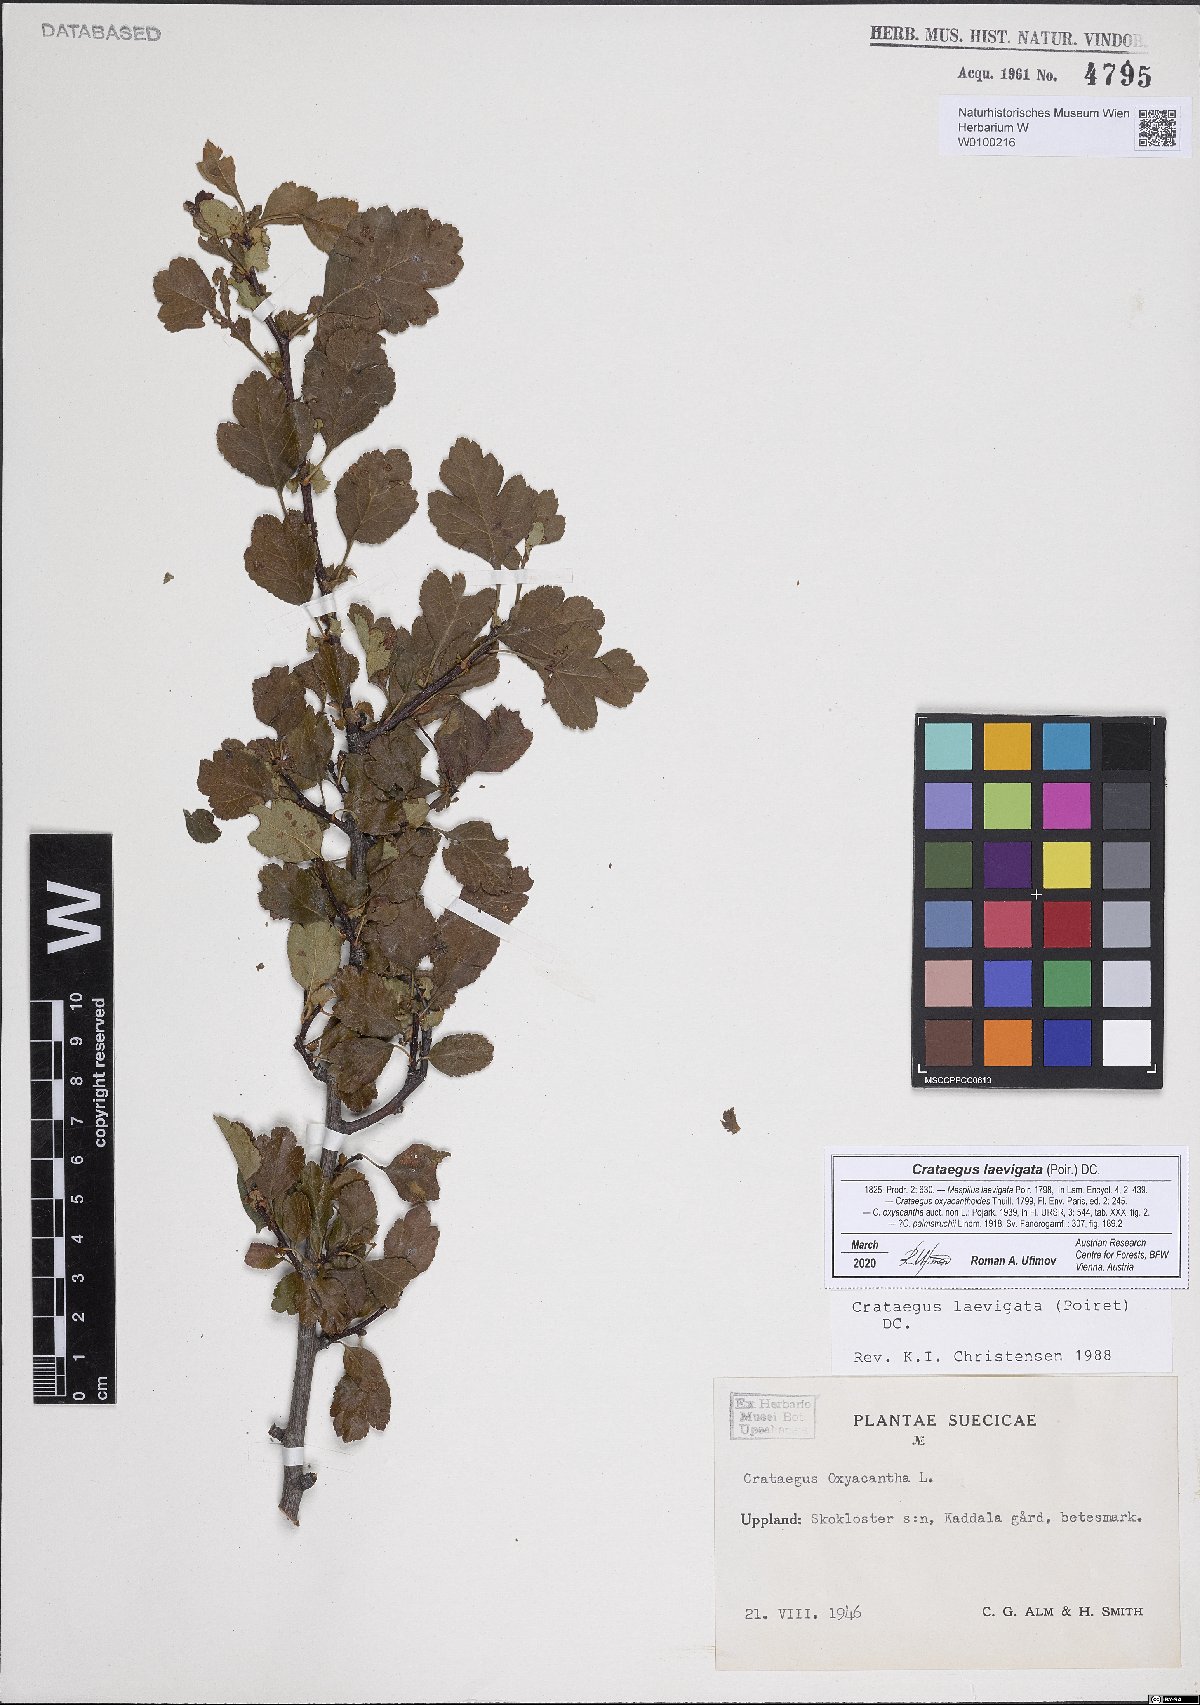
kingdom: Plantae
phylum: Tracheophyta
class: Magnoliopsida
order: Rosales
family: Rosaceae
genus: Crataegus
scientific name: Crataegus laevigata
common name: Midland hawthorn
